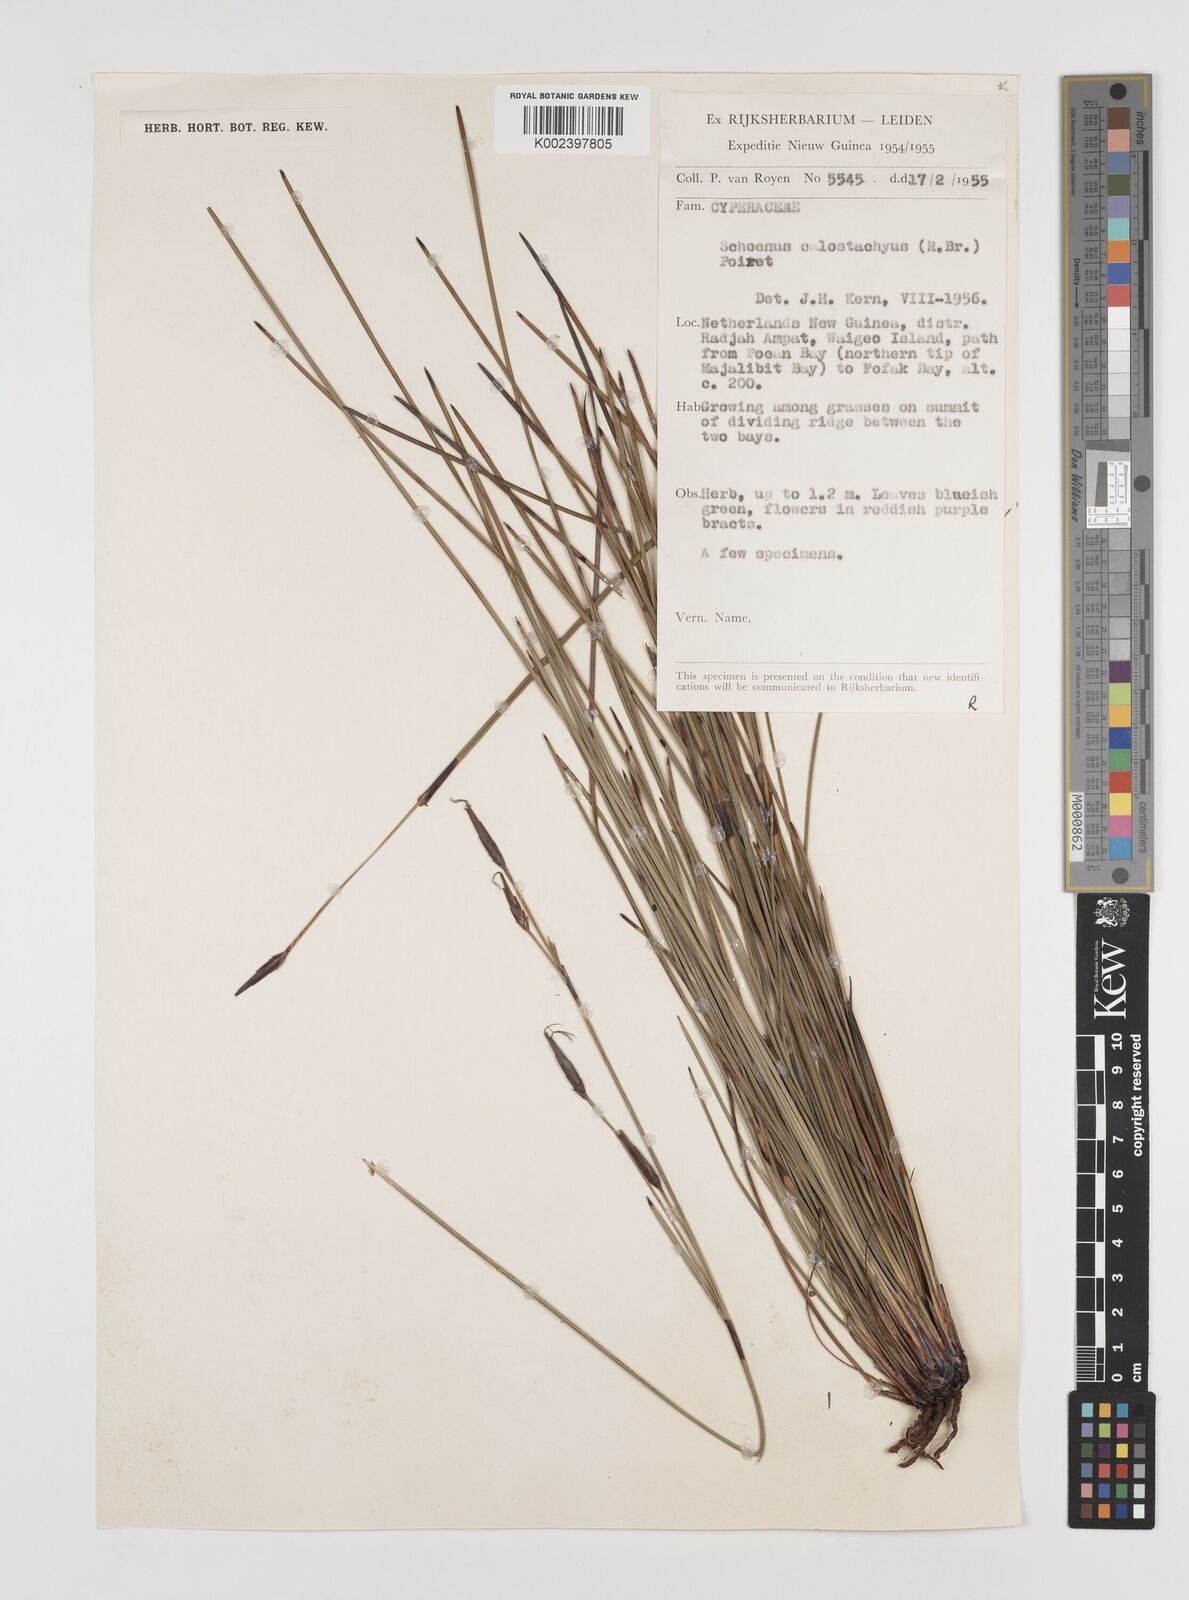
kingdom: Plantae
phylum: Tracheophyta
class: Liliopsida
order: Poales
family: Cyperaceae
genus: Schoenus
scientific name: Schoenus calostachyus
